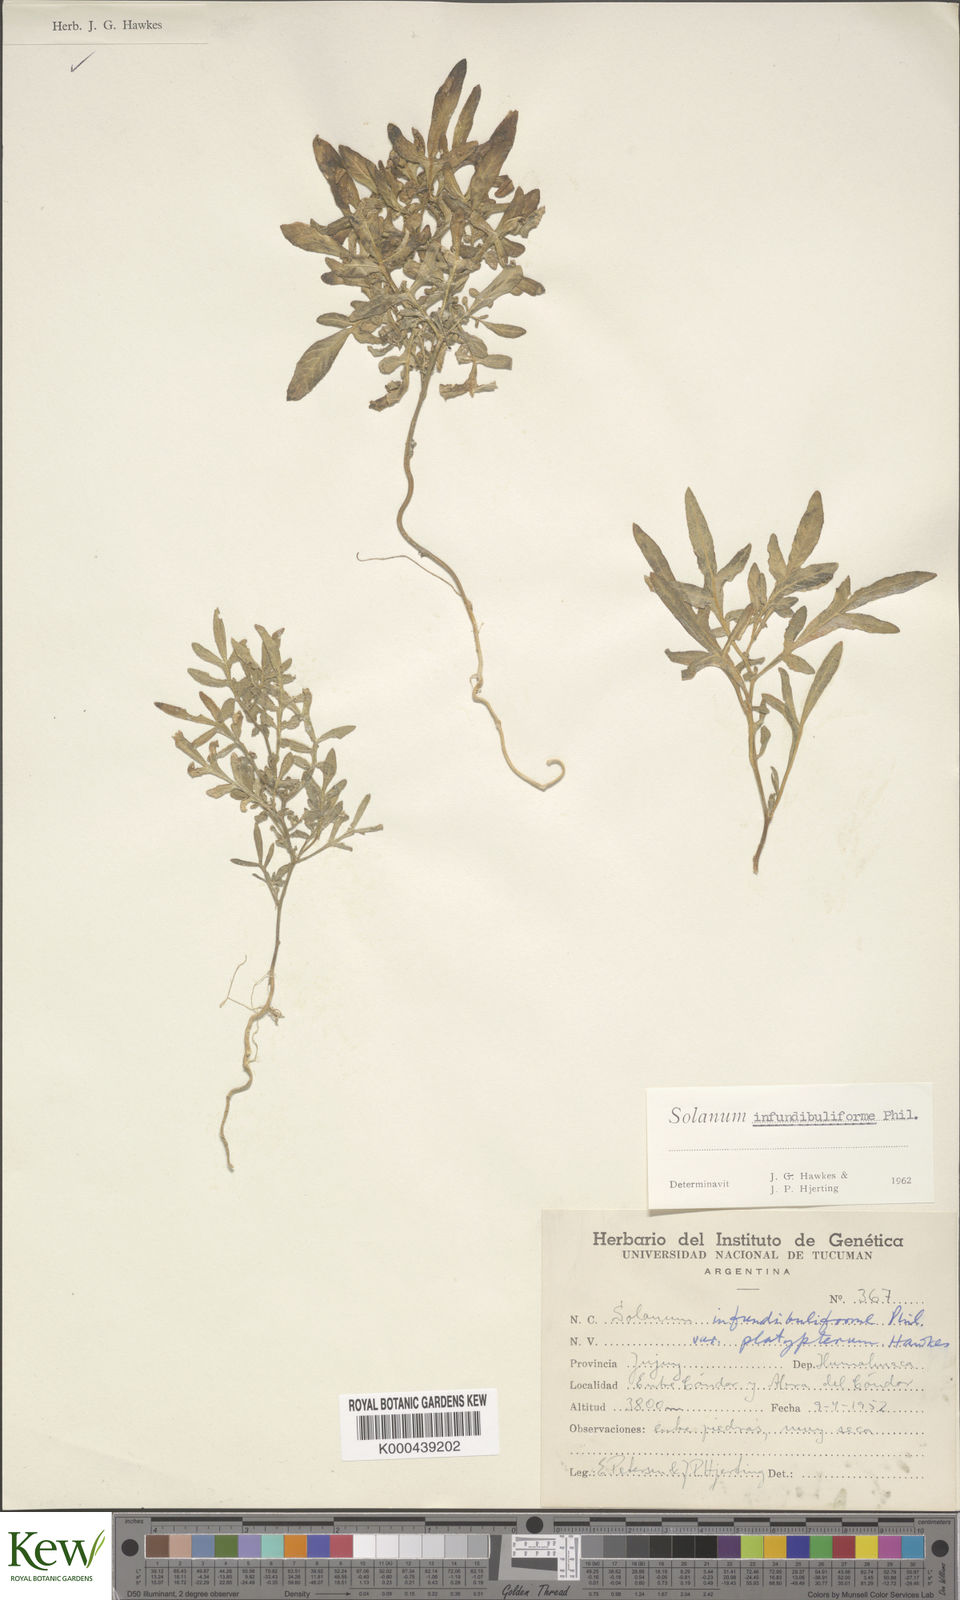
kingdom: Plantae
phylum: Tracheophyta
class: Magnoliopsida
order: Solanales
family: Solanaceae
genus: Solanum
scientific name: Solanum infundibuliforme
